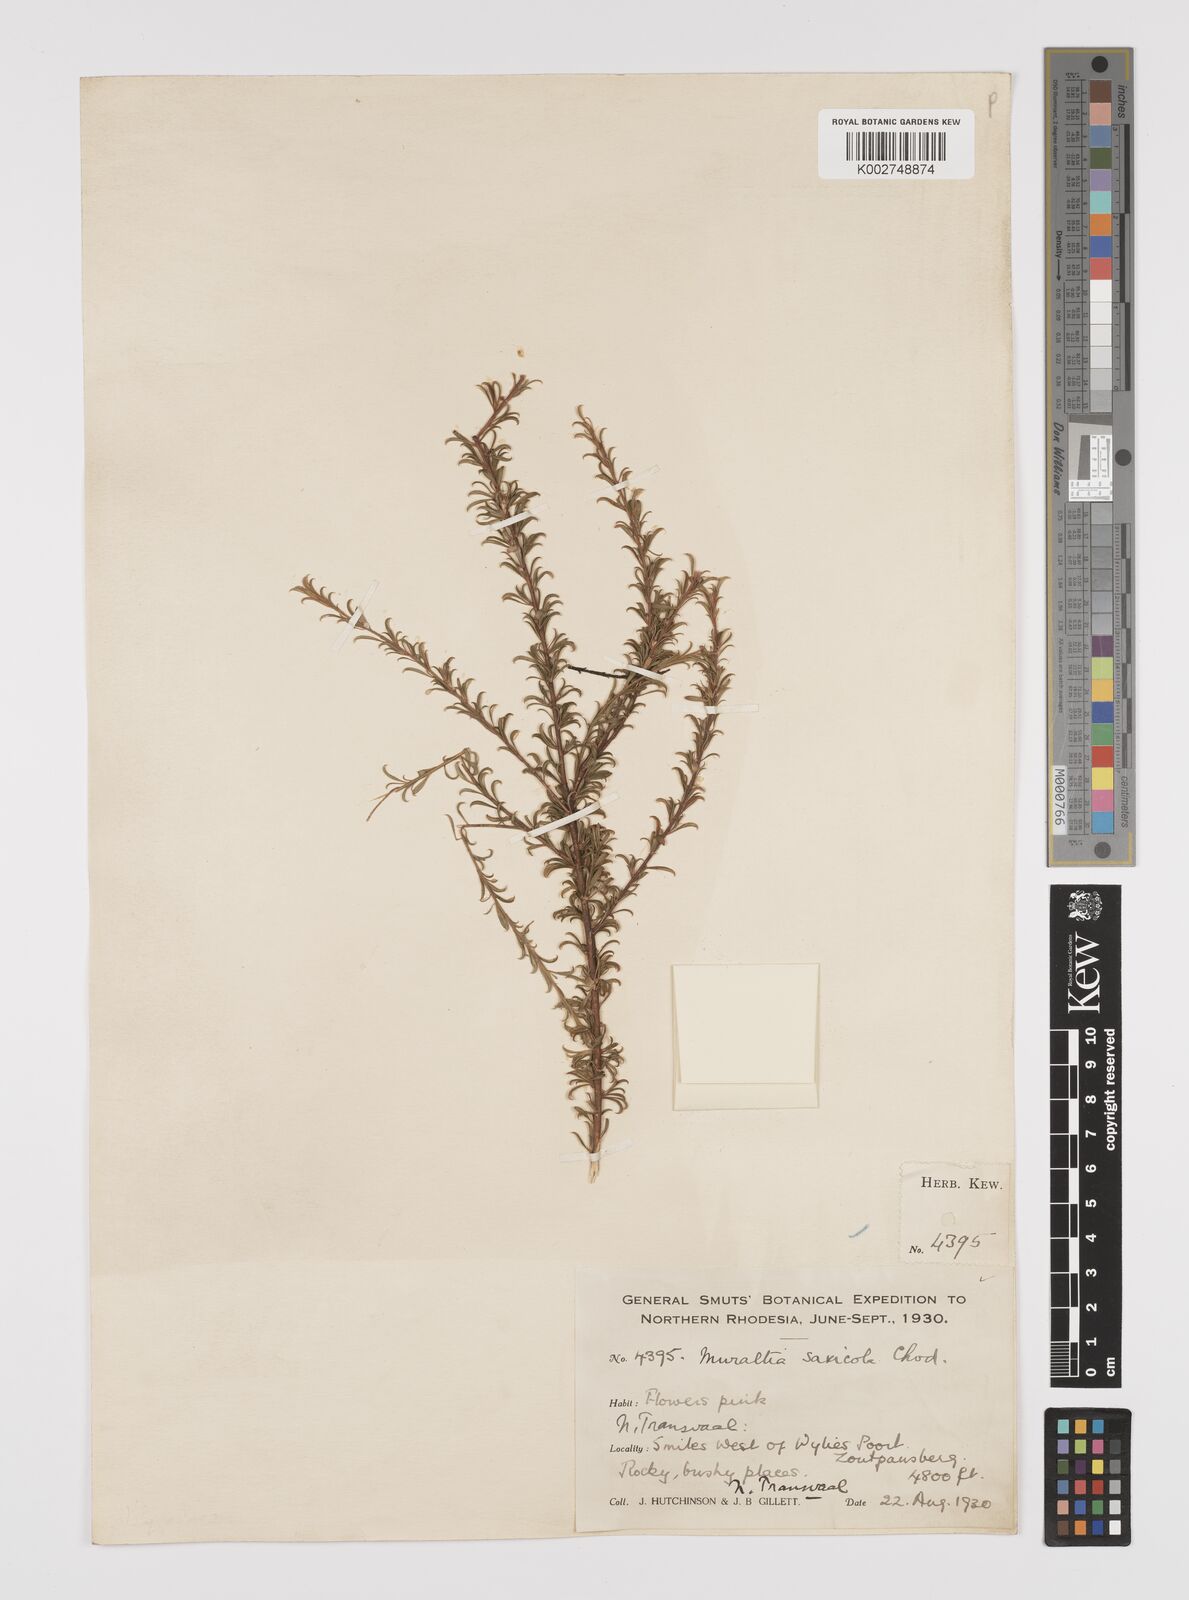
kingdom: Plantae
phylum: Tracheophyta
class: Magnoliopsida
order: Fabales
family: Polygalaceae
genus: Muraltia
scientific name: Muraltia saxicola
